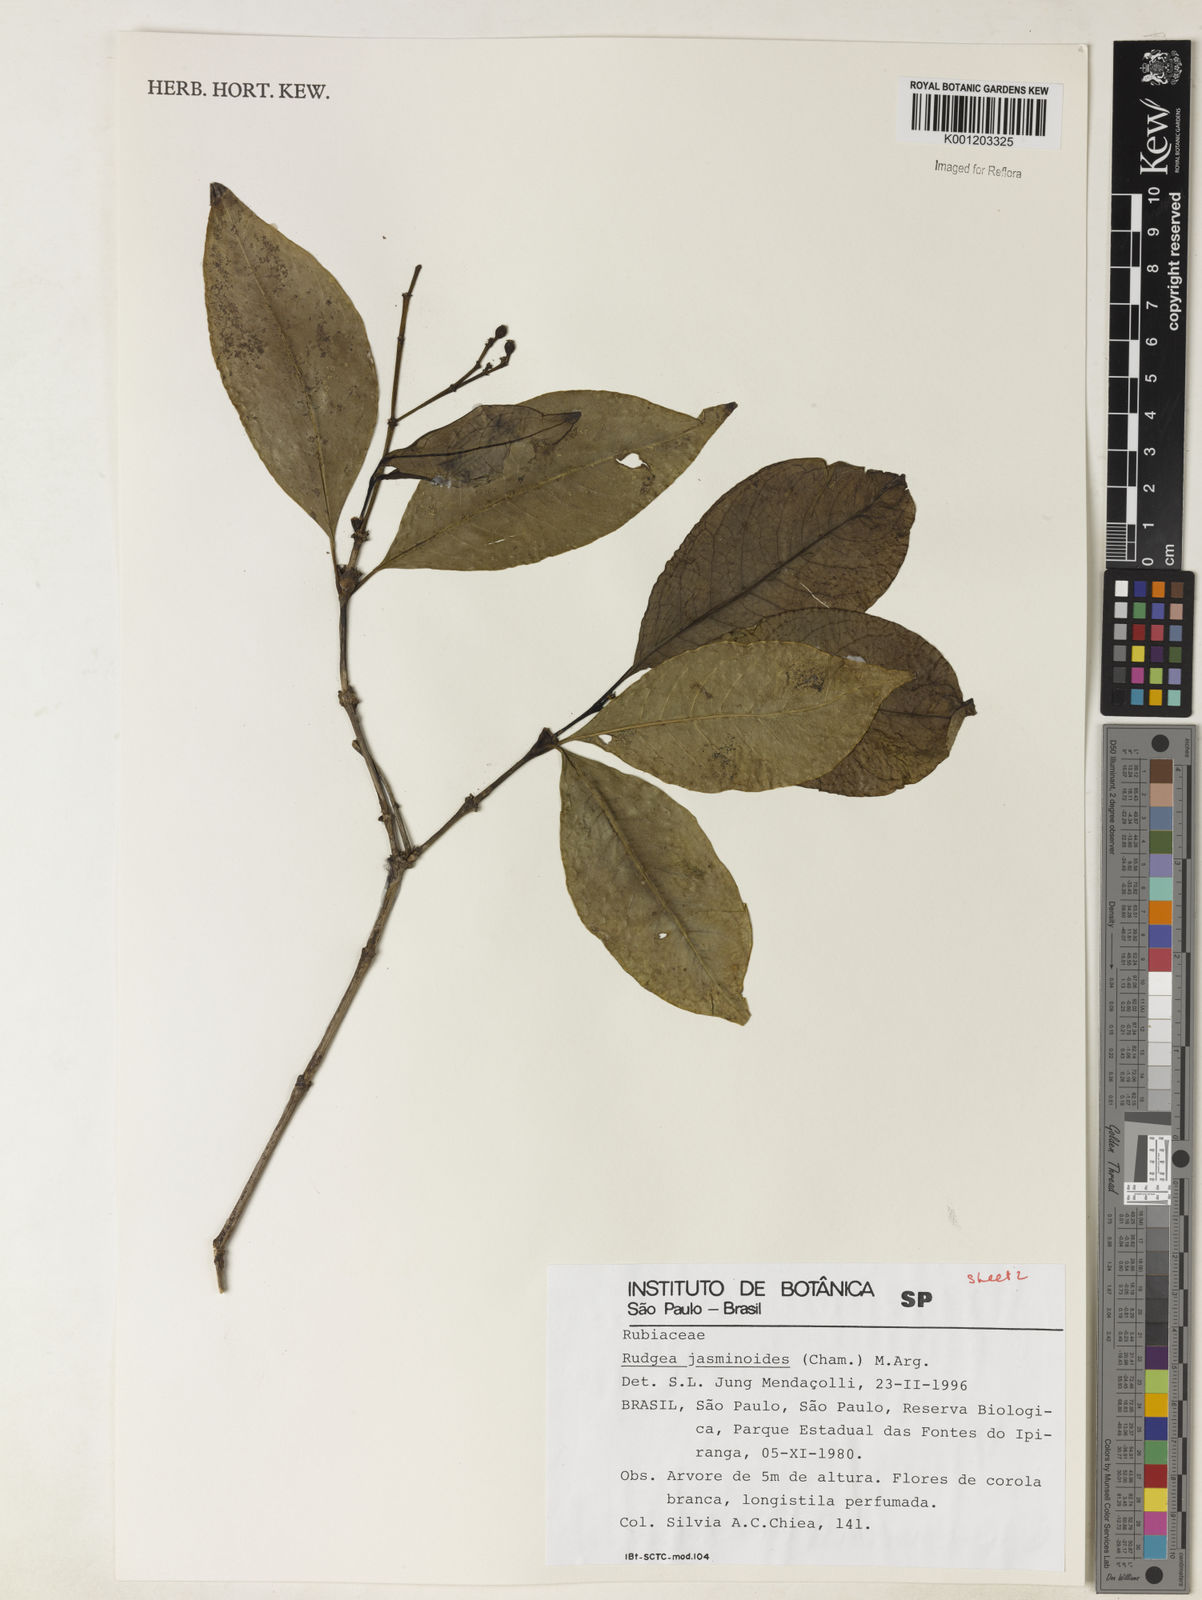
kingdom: Plantae
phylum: Tracheophyta
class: Magnoliopsida
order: Gentianales
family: Rubiaceae
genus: Rudgea
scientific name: Rudgea
